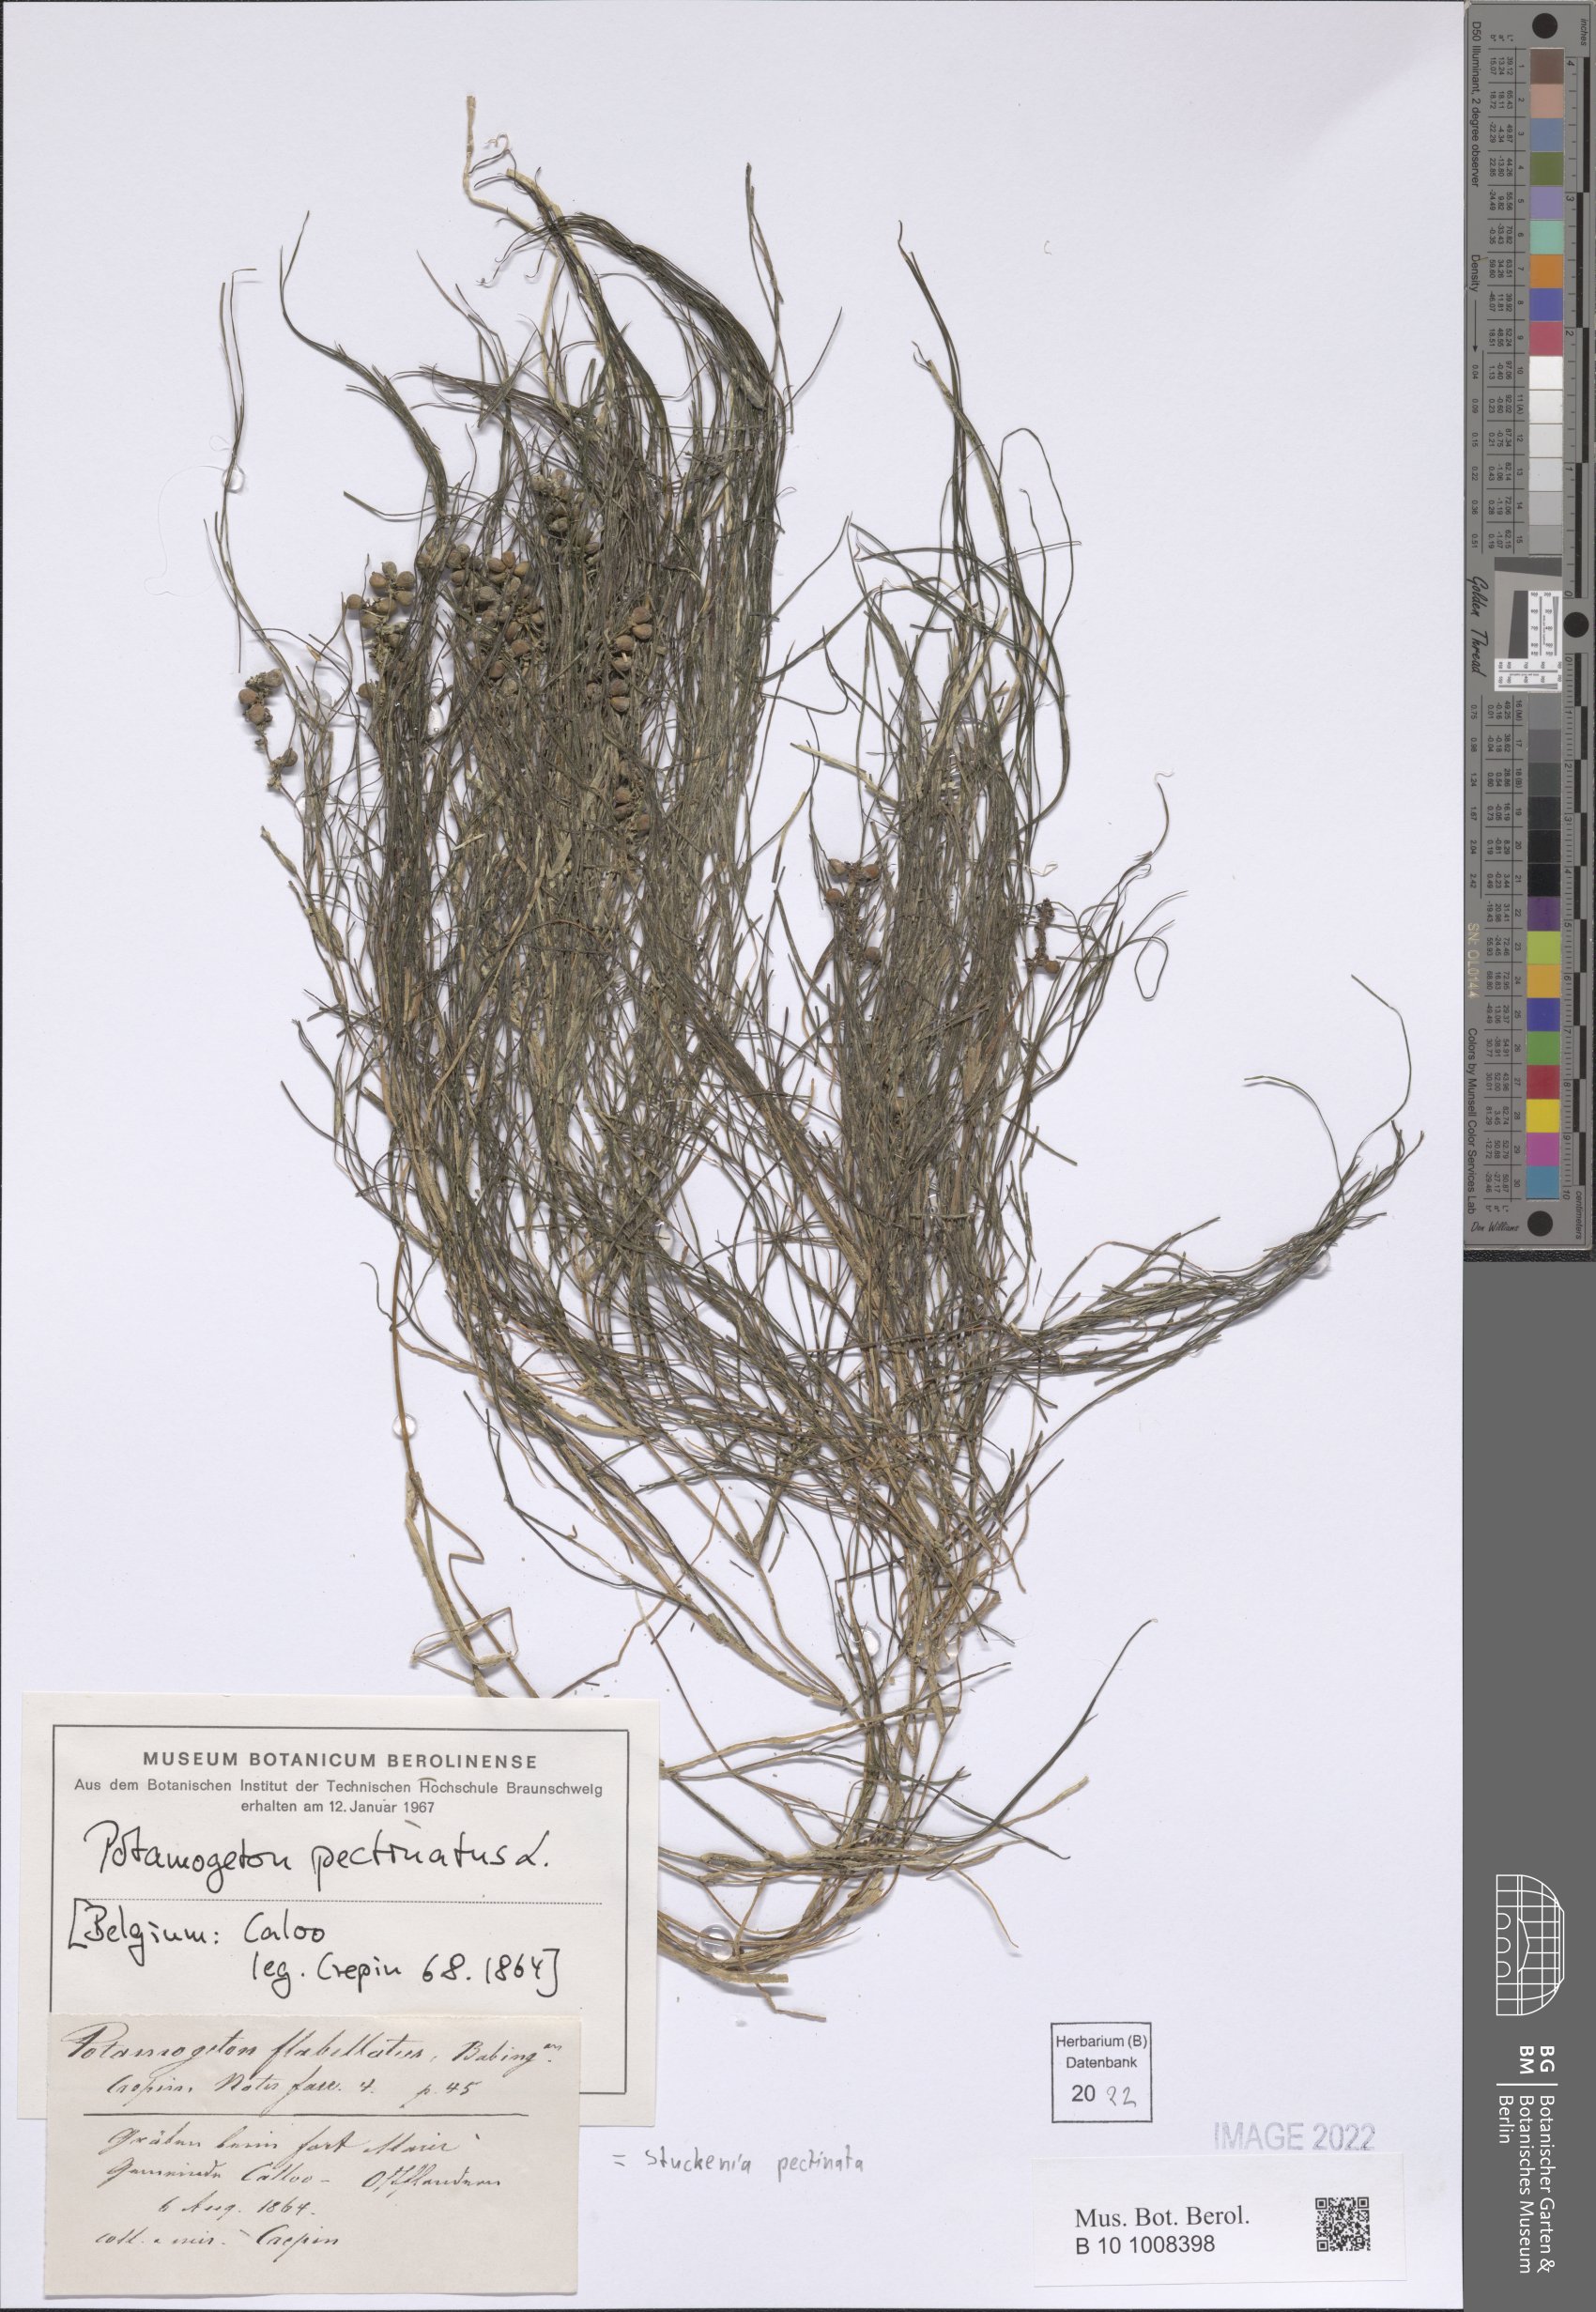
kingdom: Plantae
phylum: Tracheophyta
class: Liliopsida
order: Alismatales
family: Potamogetonaceae
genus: Stuckenia
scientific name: Stuckenia pectinata
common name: Sago pondweed
